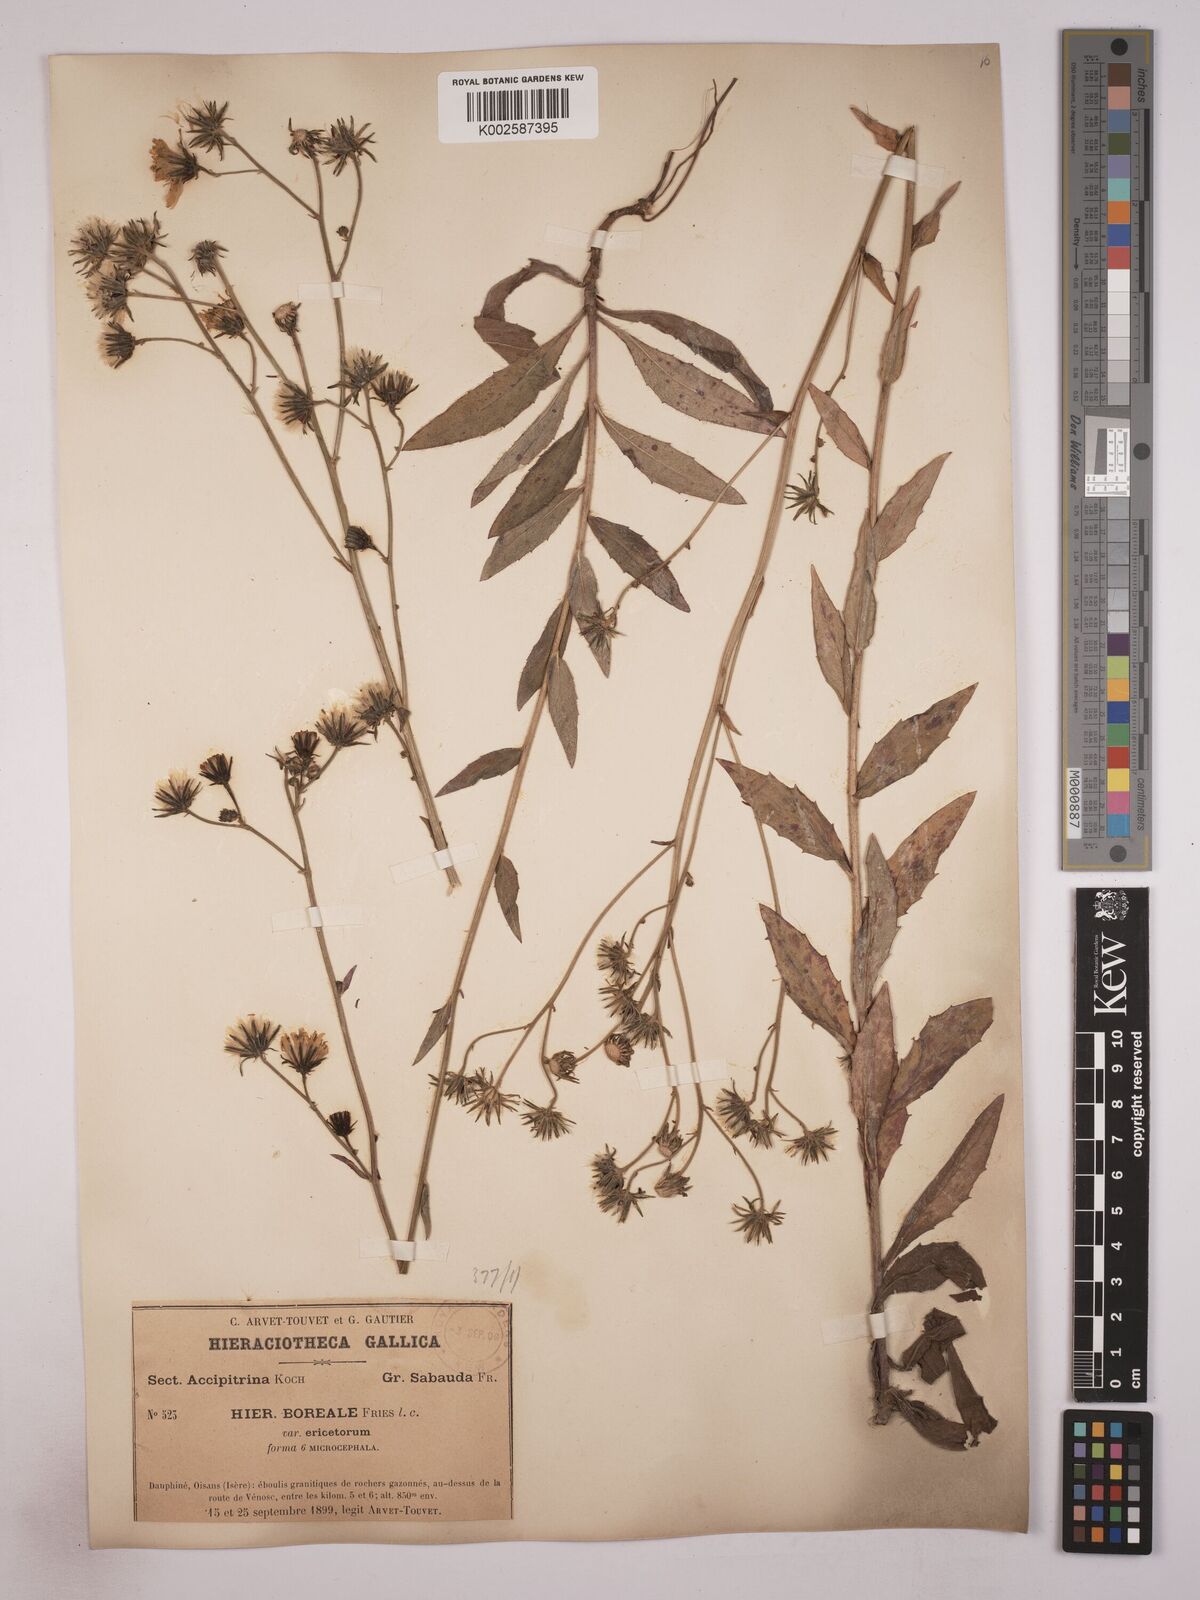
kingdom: Plantae
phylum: Tracheophyta
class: Magnoliopsida
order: Asterales
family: Asteraceae
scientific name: Asteraceae
